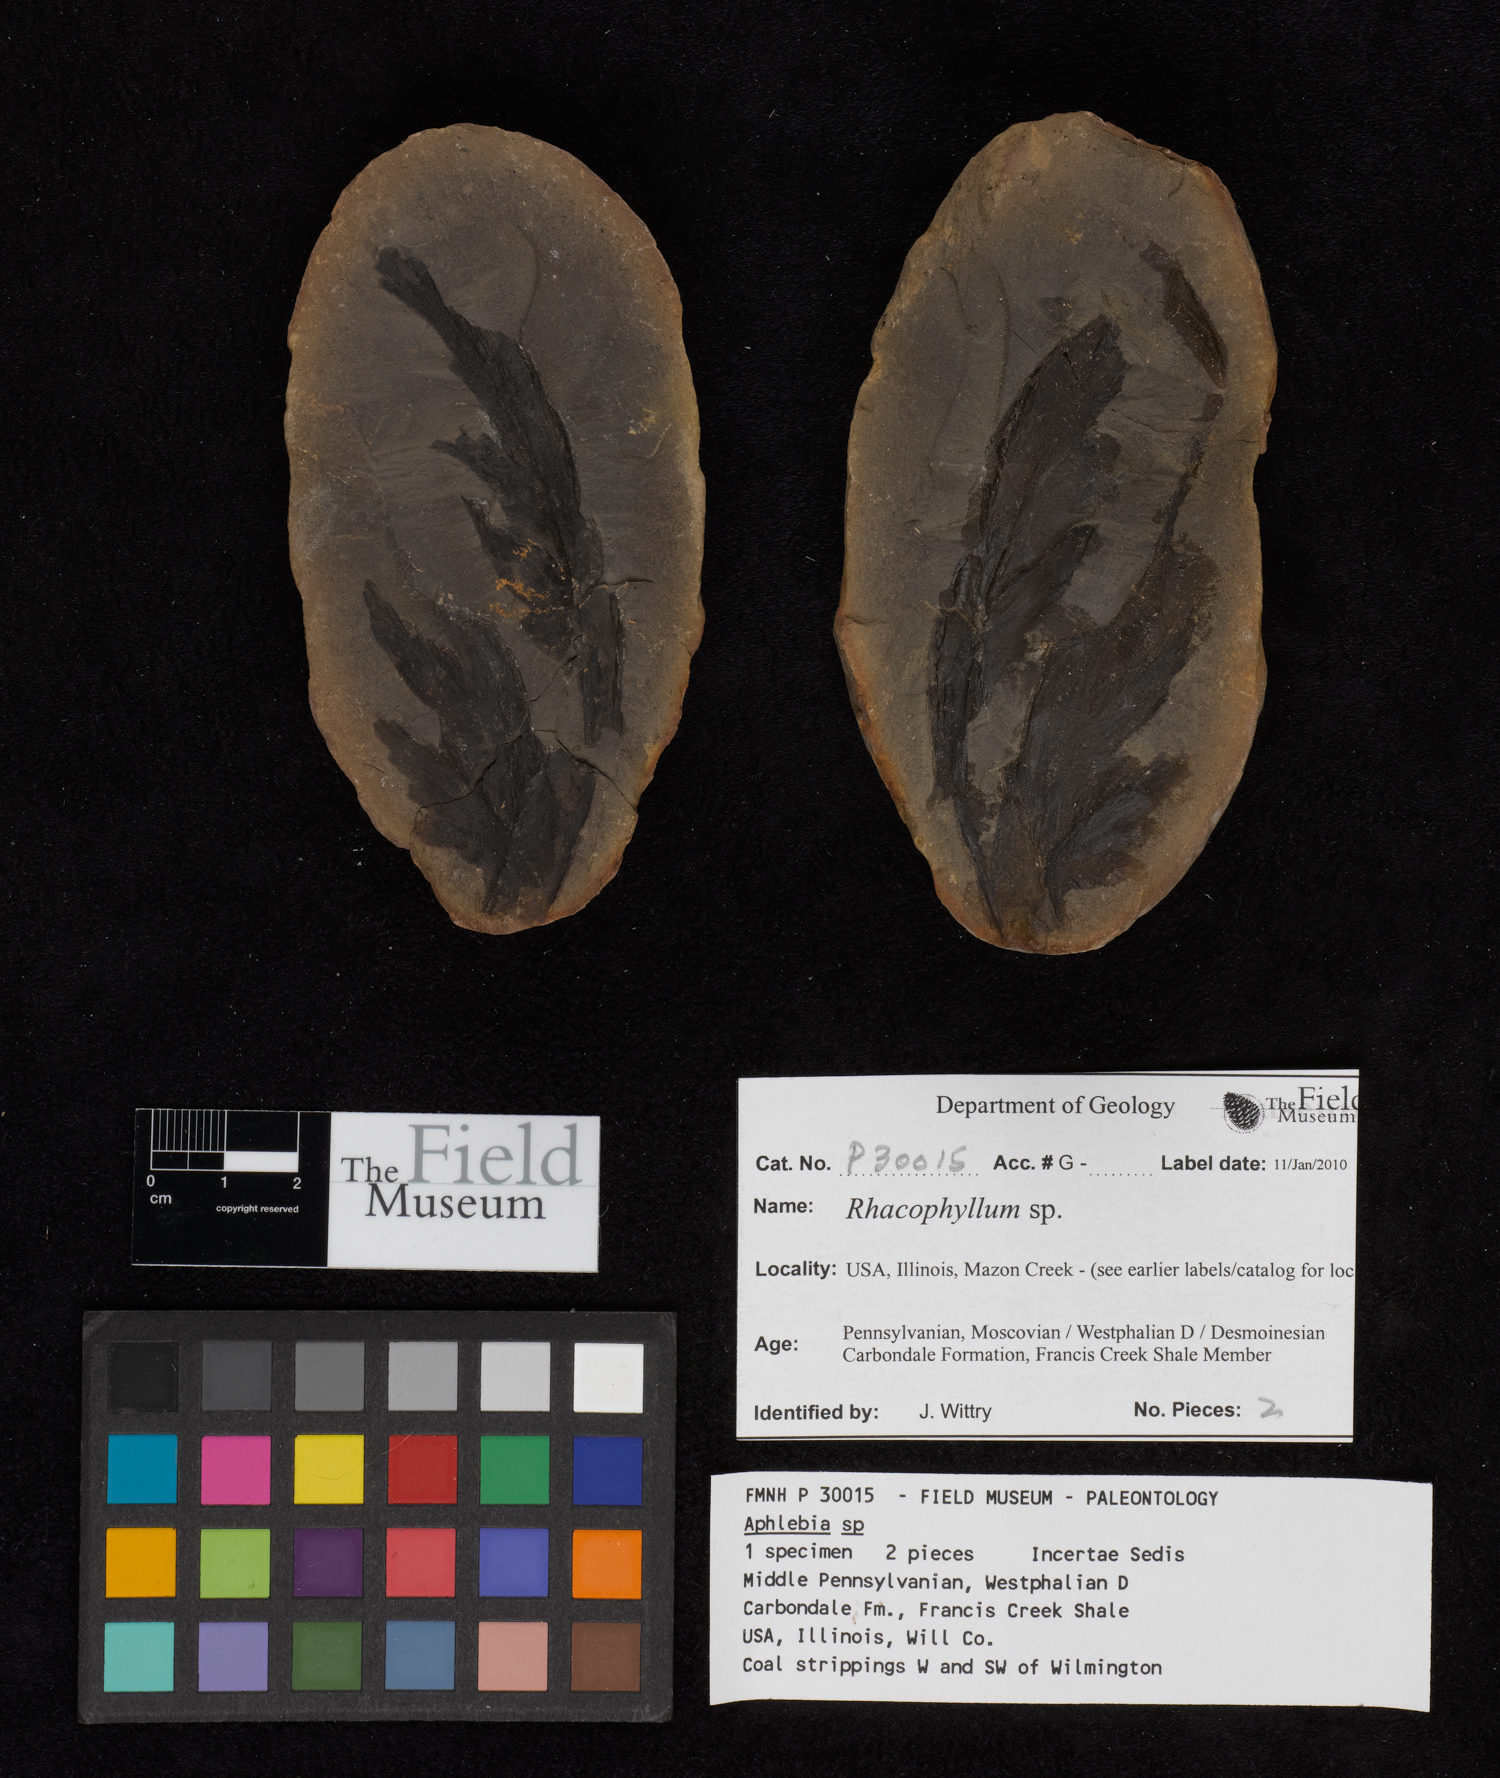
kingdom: Plantae
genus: Rhacophyllum
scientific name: Rhacophyllum
